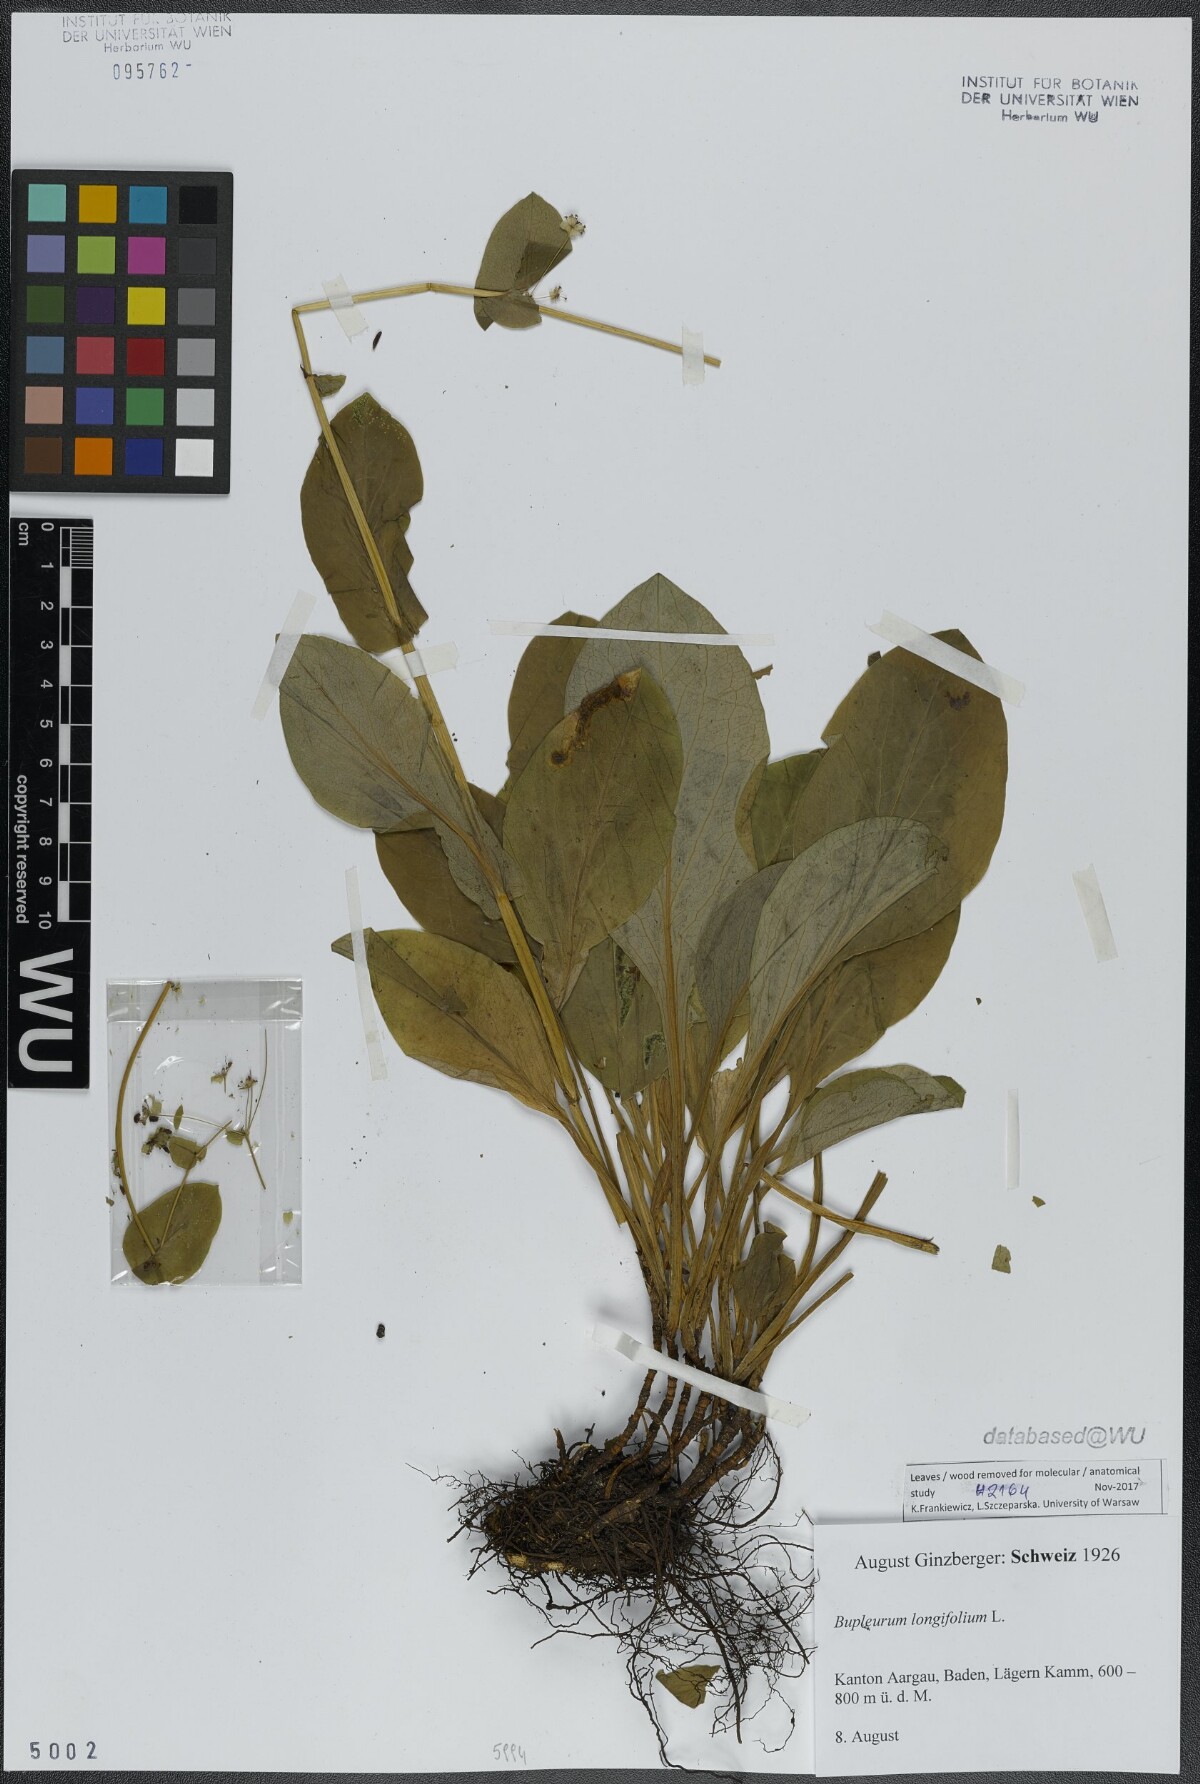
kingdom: Plantae
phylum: Tracheophyta
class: Magnoliopsida
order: Apiales
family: Apiaceae
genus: Bupleurum
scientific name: Bupleurum longifolium
